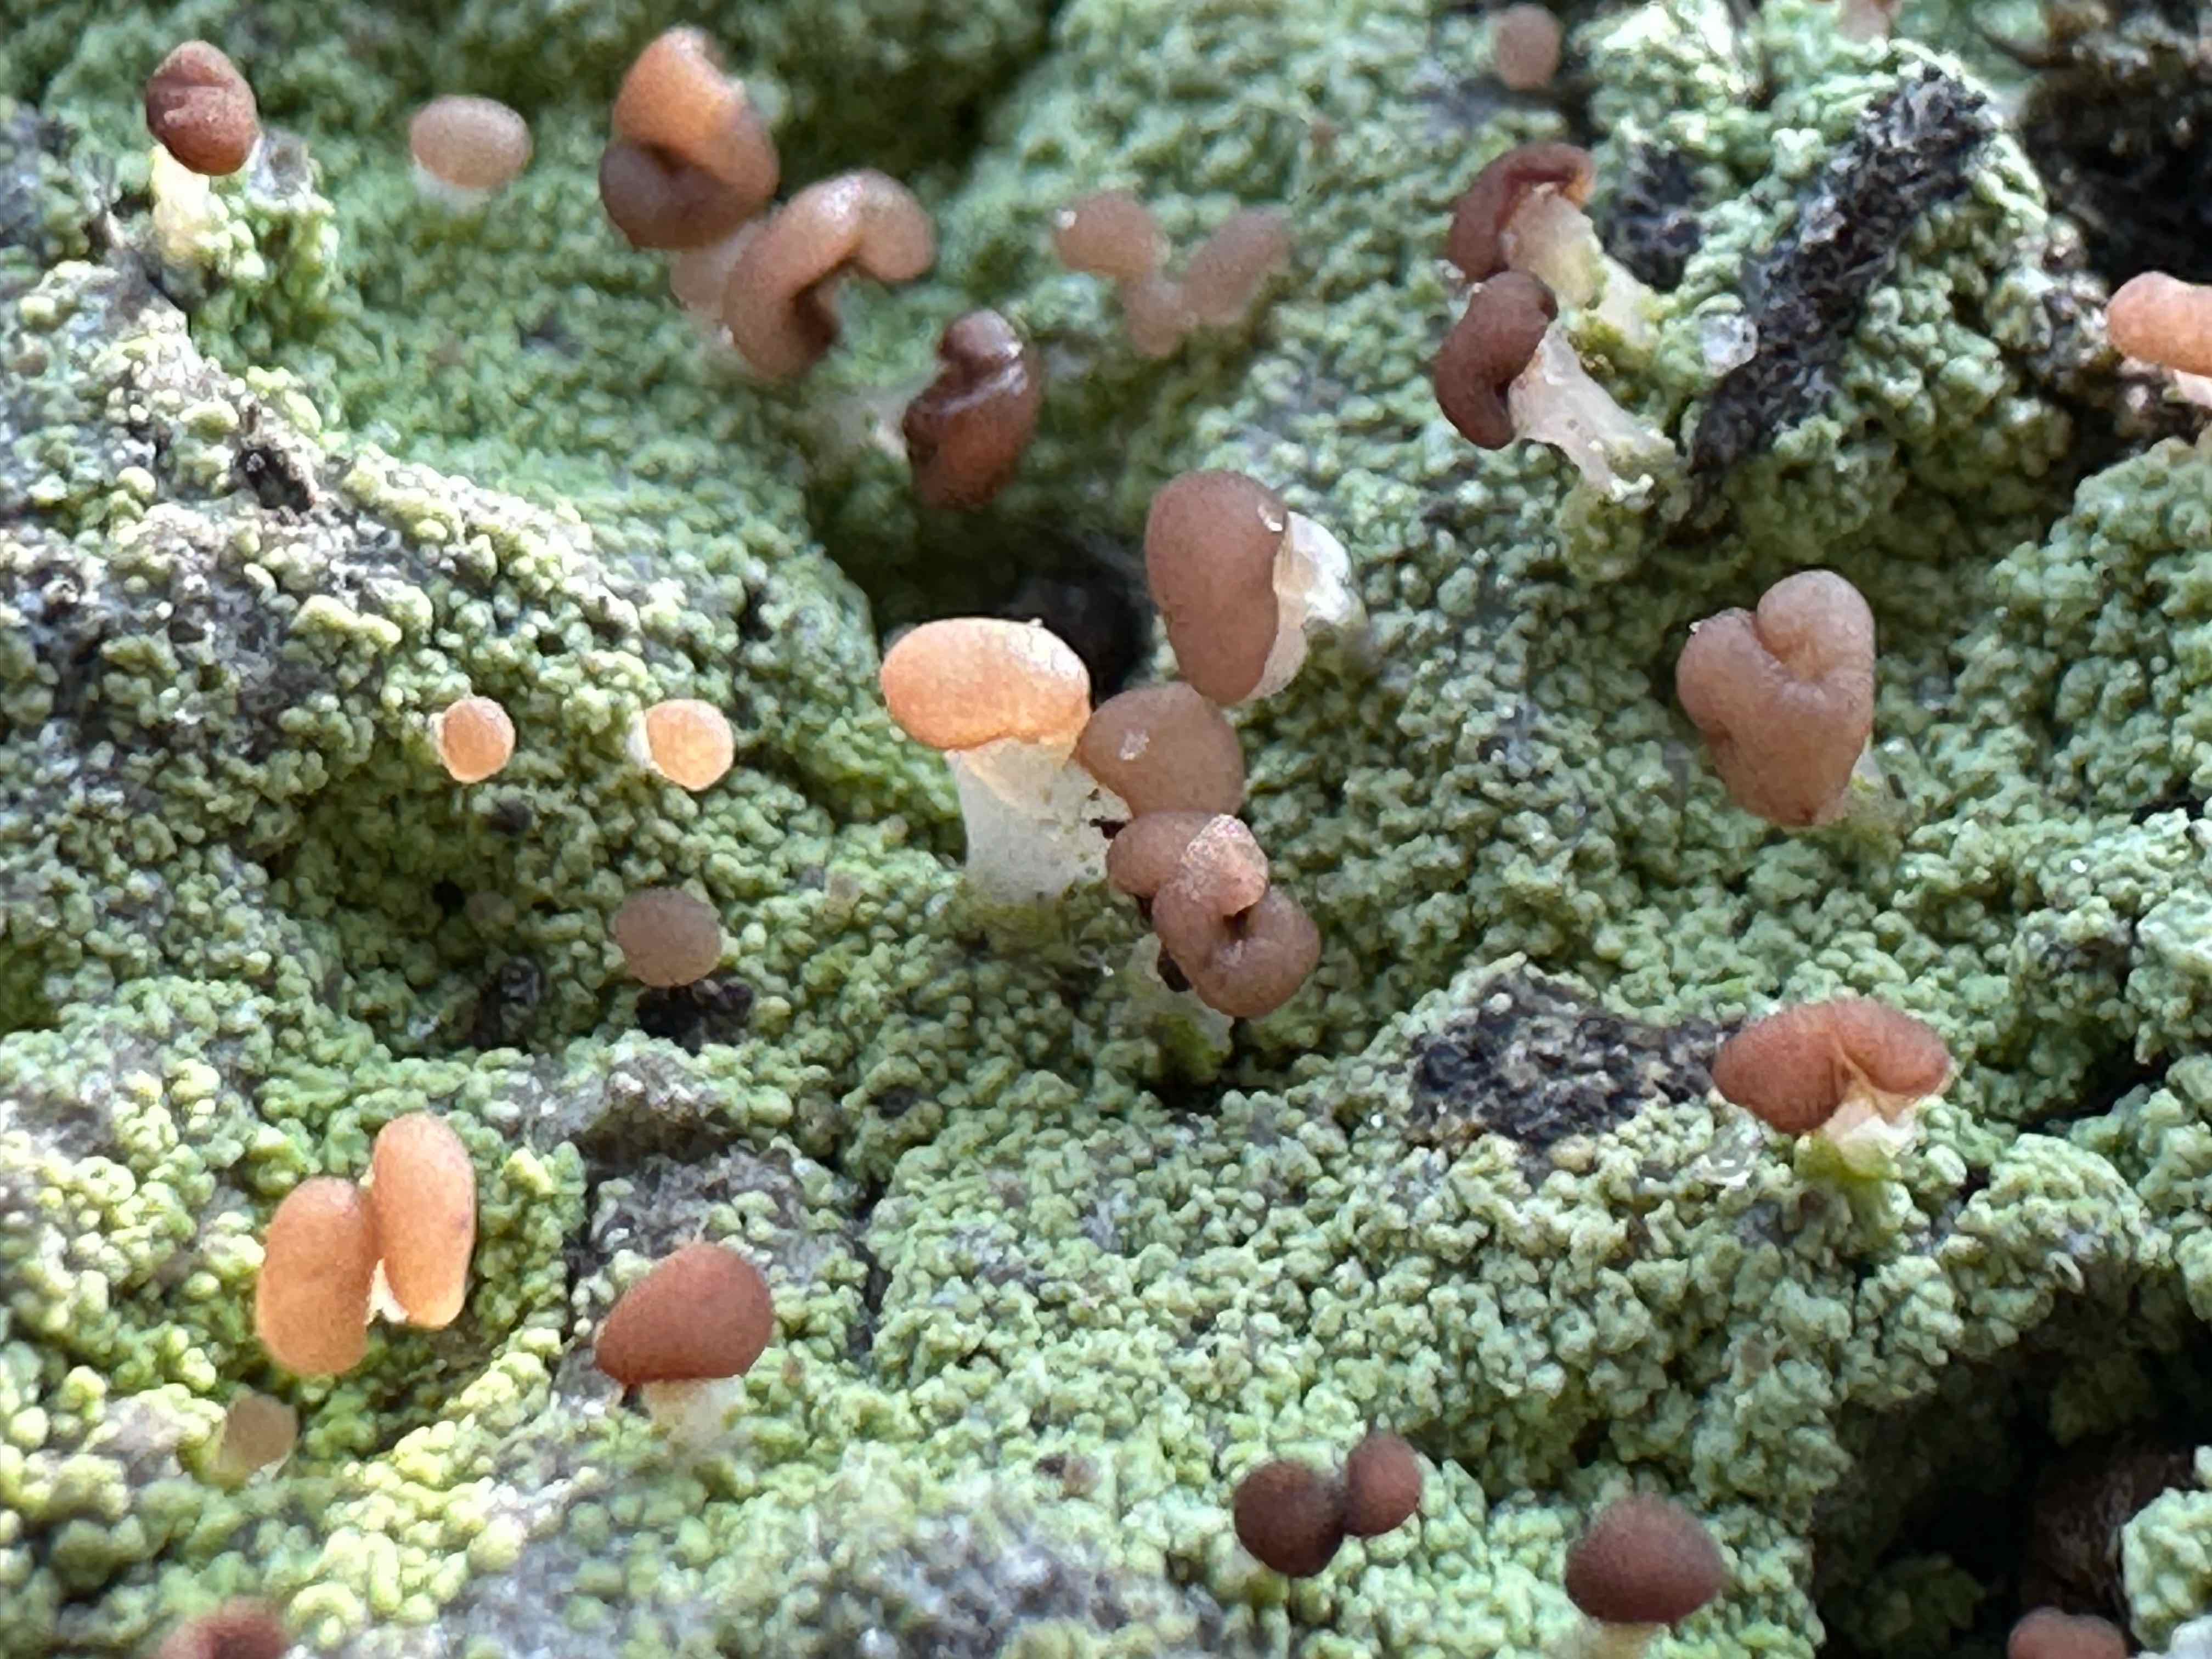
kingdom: Fungi
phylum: Ascomycota
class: Lecanoromycetes
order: Baeomycetales
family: Baeomycetaceae
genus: Baeomyces
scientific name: Baeomyces rufus
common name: rødbrun svampelav
